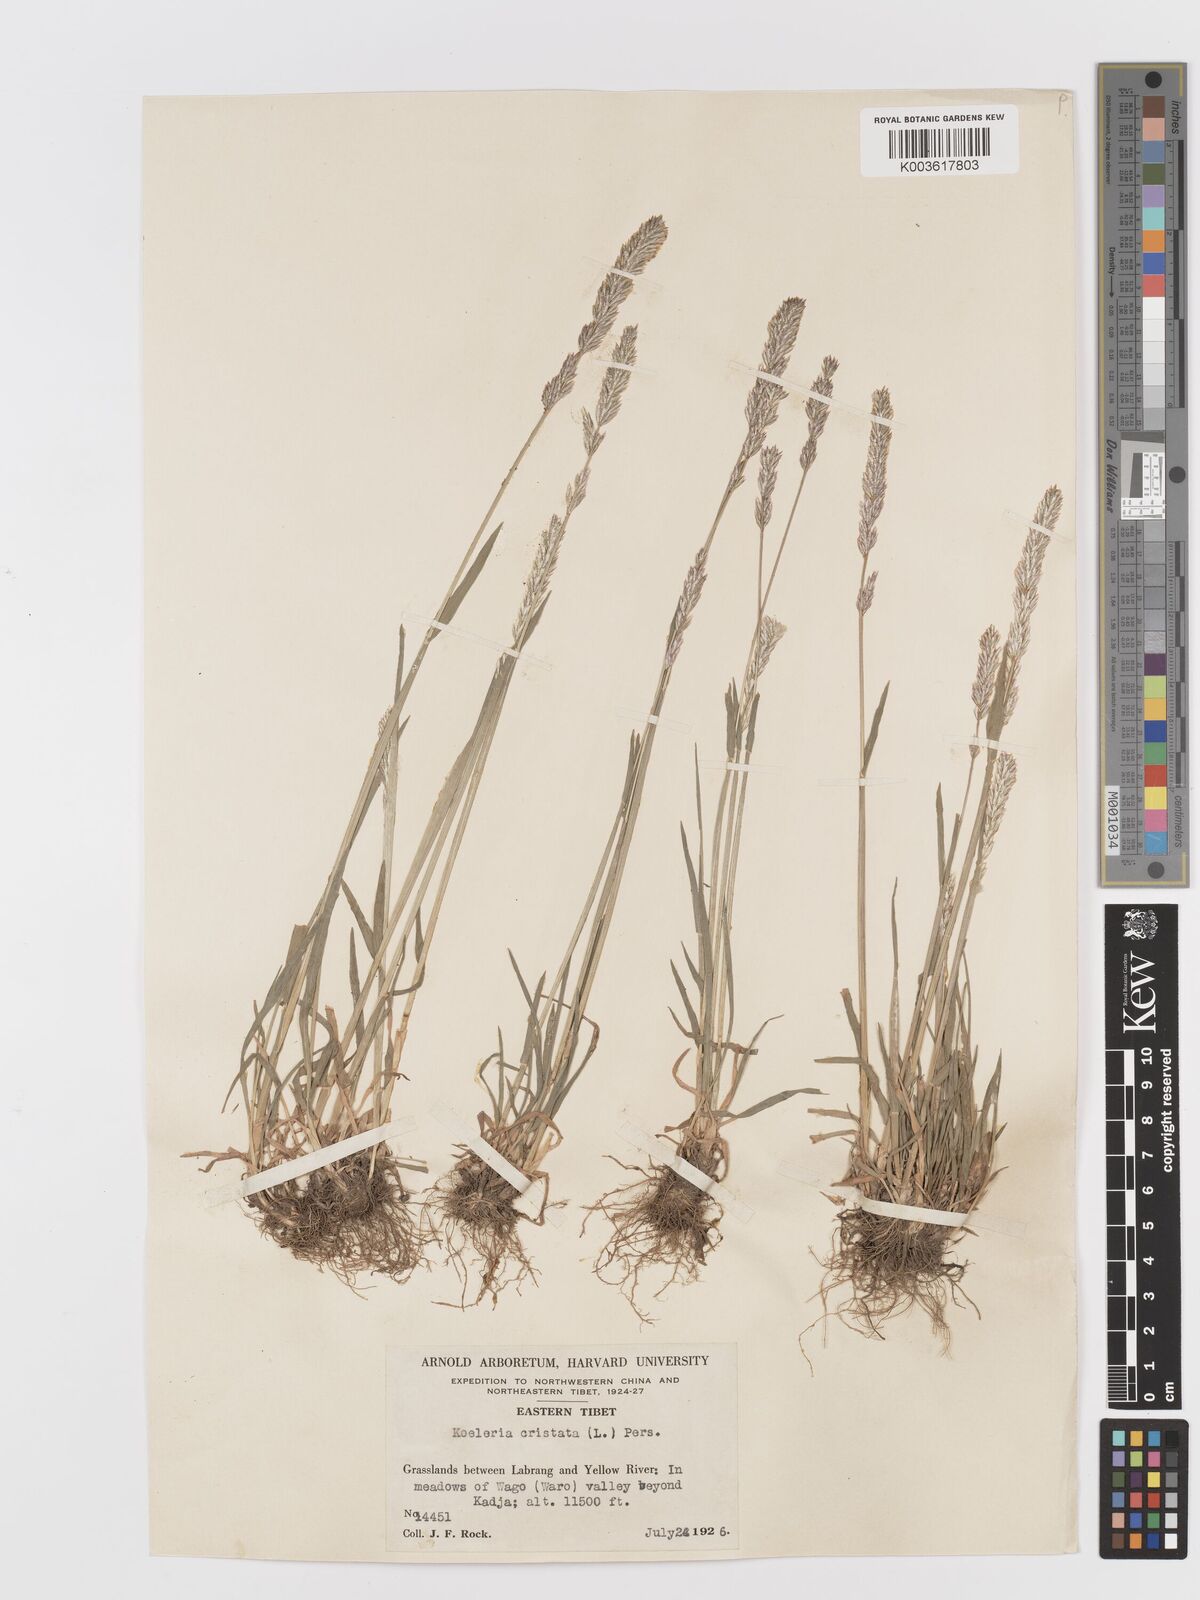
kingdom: Plantae
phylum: Tracheophyta
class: Liliopsida
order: Poales
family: Poaceae
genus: Koeleria
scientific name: Koeleria macrantha
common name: Crested hair-grass
